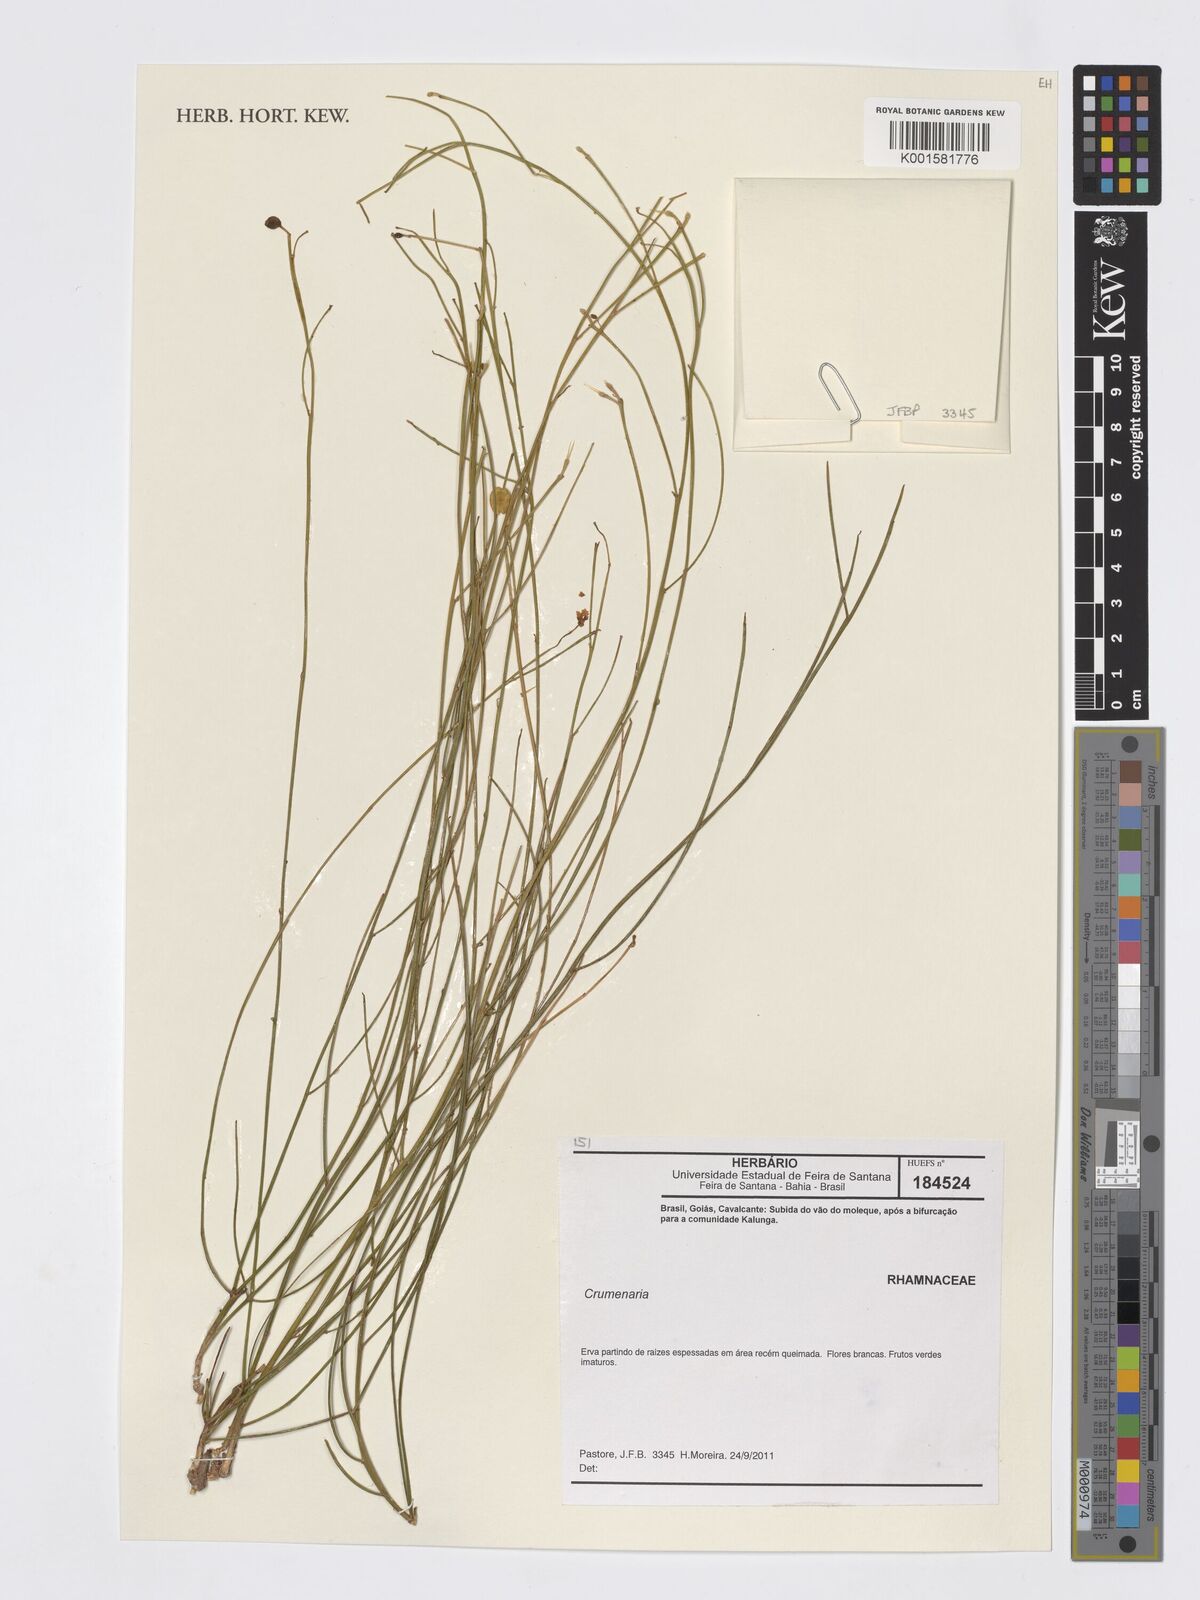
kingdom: Plantae
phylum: Tracheophyta
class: Magnoliopsida
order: Rosales
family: Rhamnaceae
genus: Crumenaria
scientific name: Crumenaria
